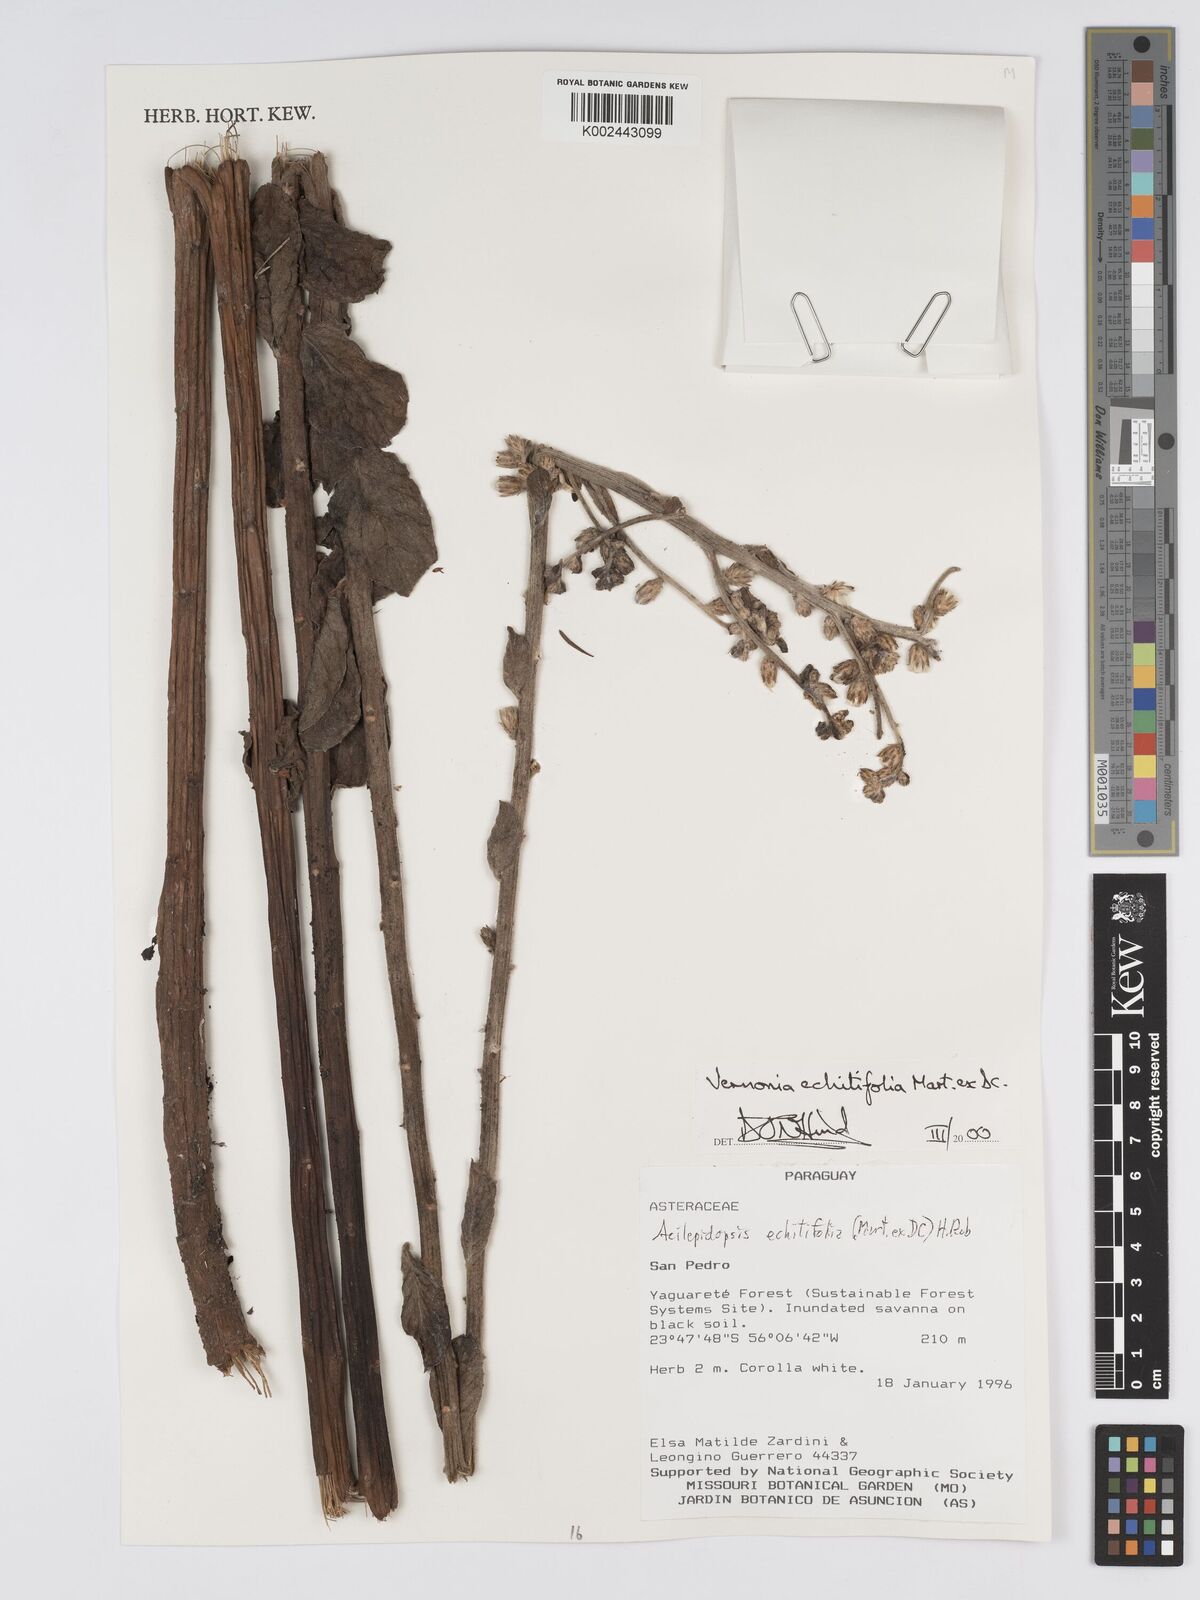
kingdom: Plantae
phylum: Tracheophyta
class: Magnoliopsida
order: Asterales
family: Asteraceae
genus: Acilepidopsis
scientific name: Acilepidopsis echitifolia
